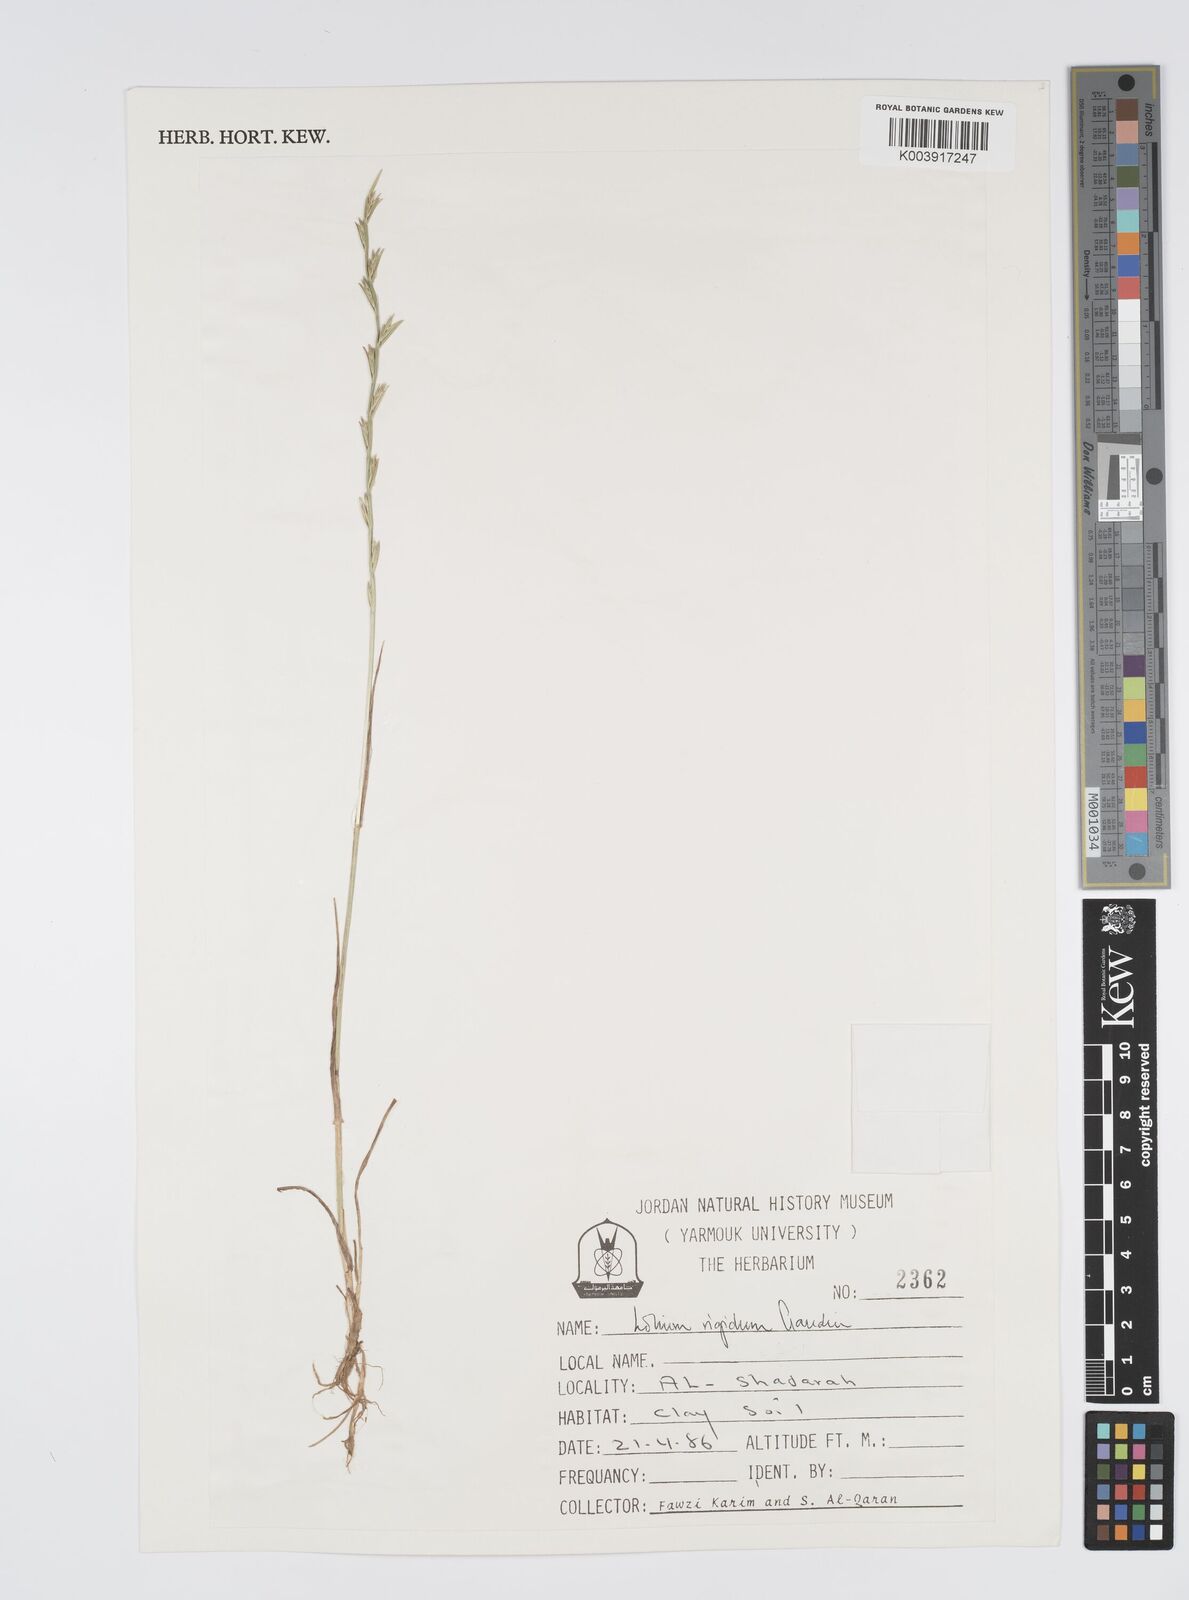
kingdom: Plantae
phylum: Tracheophyta
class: Liliopsida
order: Poales
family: Poaceae
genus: Lolium
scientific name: Lolium rigidum
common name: Wimmera ryegrass
